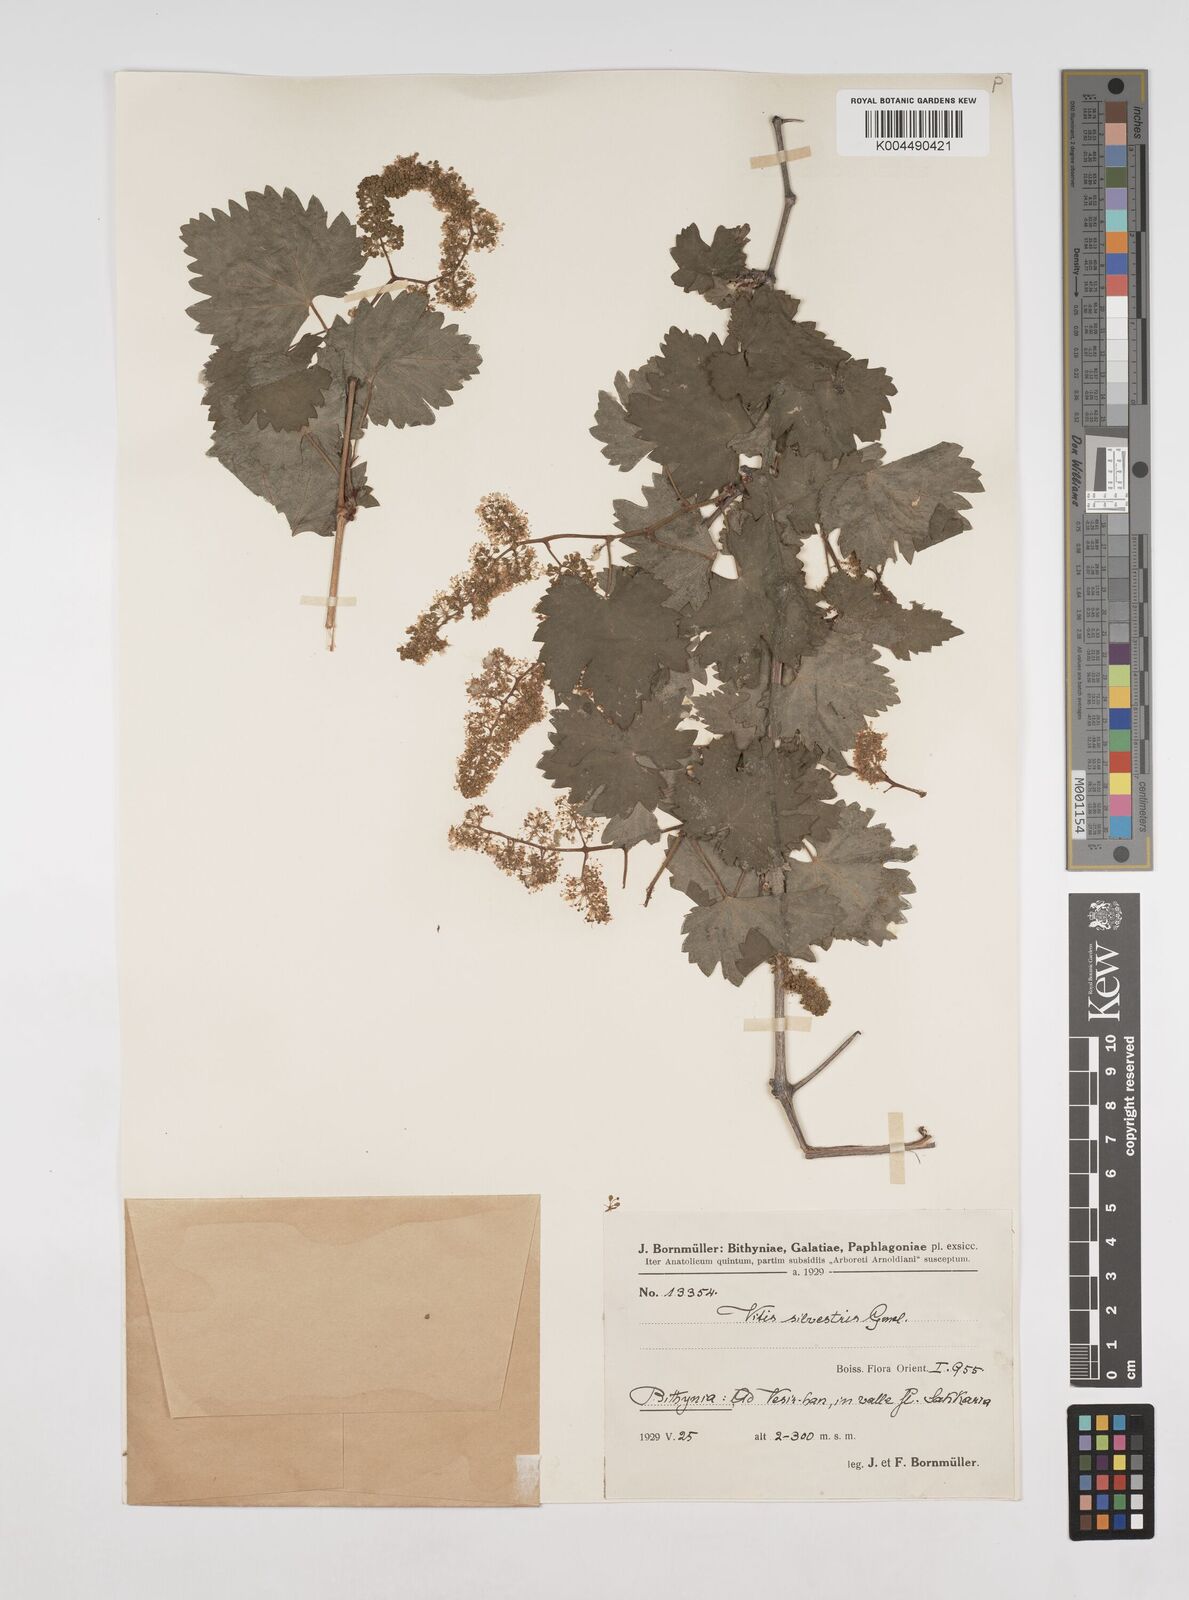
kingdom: Plantae
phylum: Tracheophyta
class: Magnoliopsida
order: Vitales
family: Vitaceae
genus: Vitis
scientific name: Vitis gmelinii
